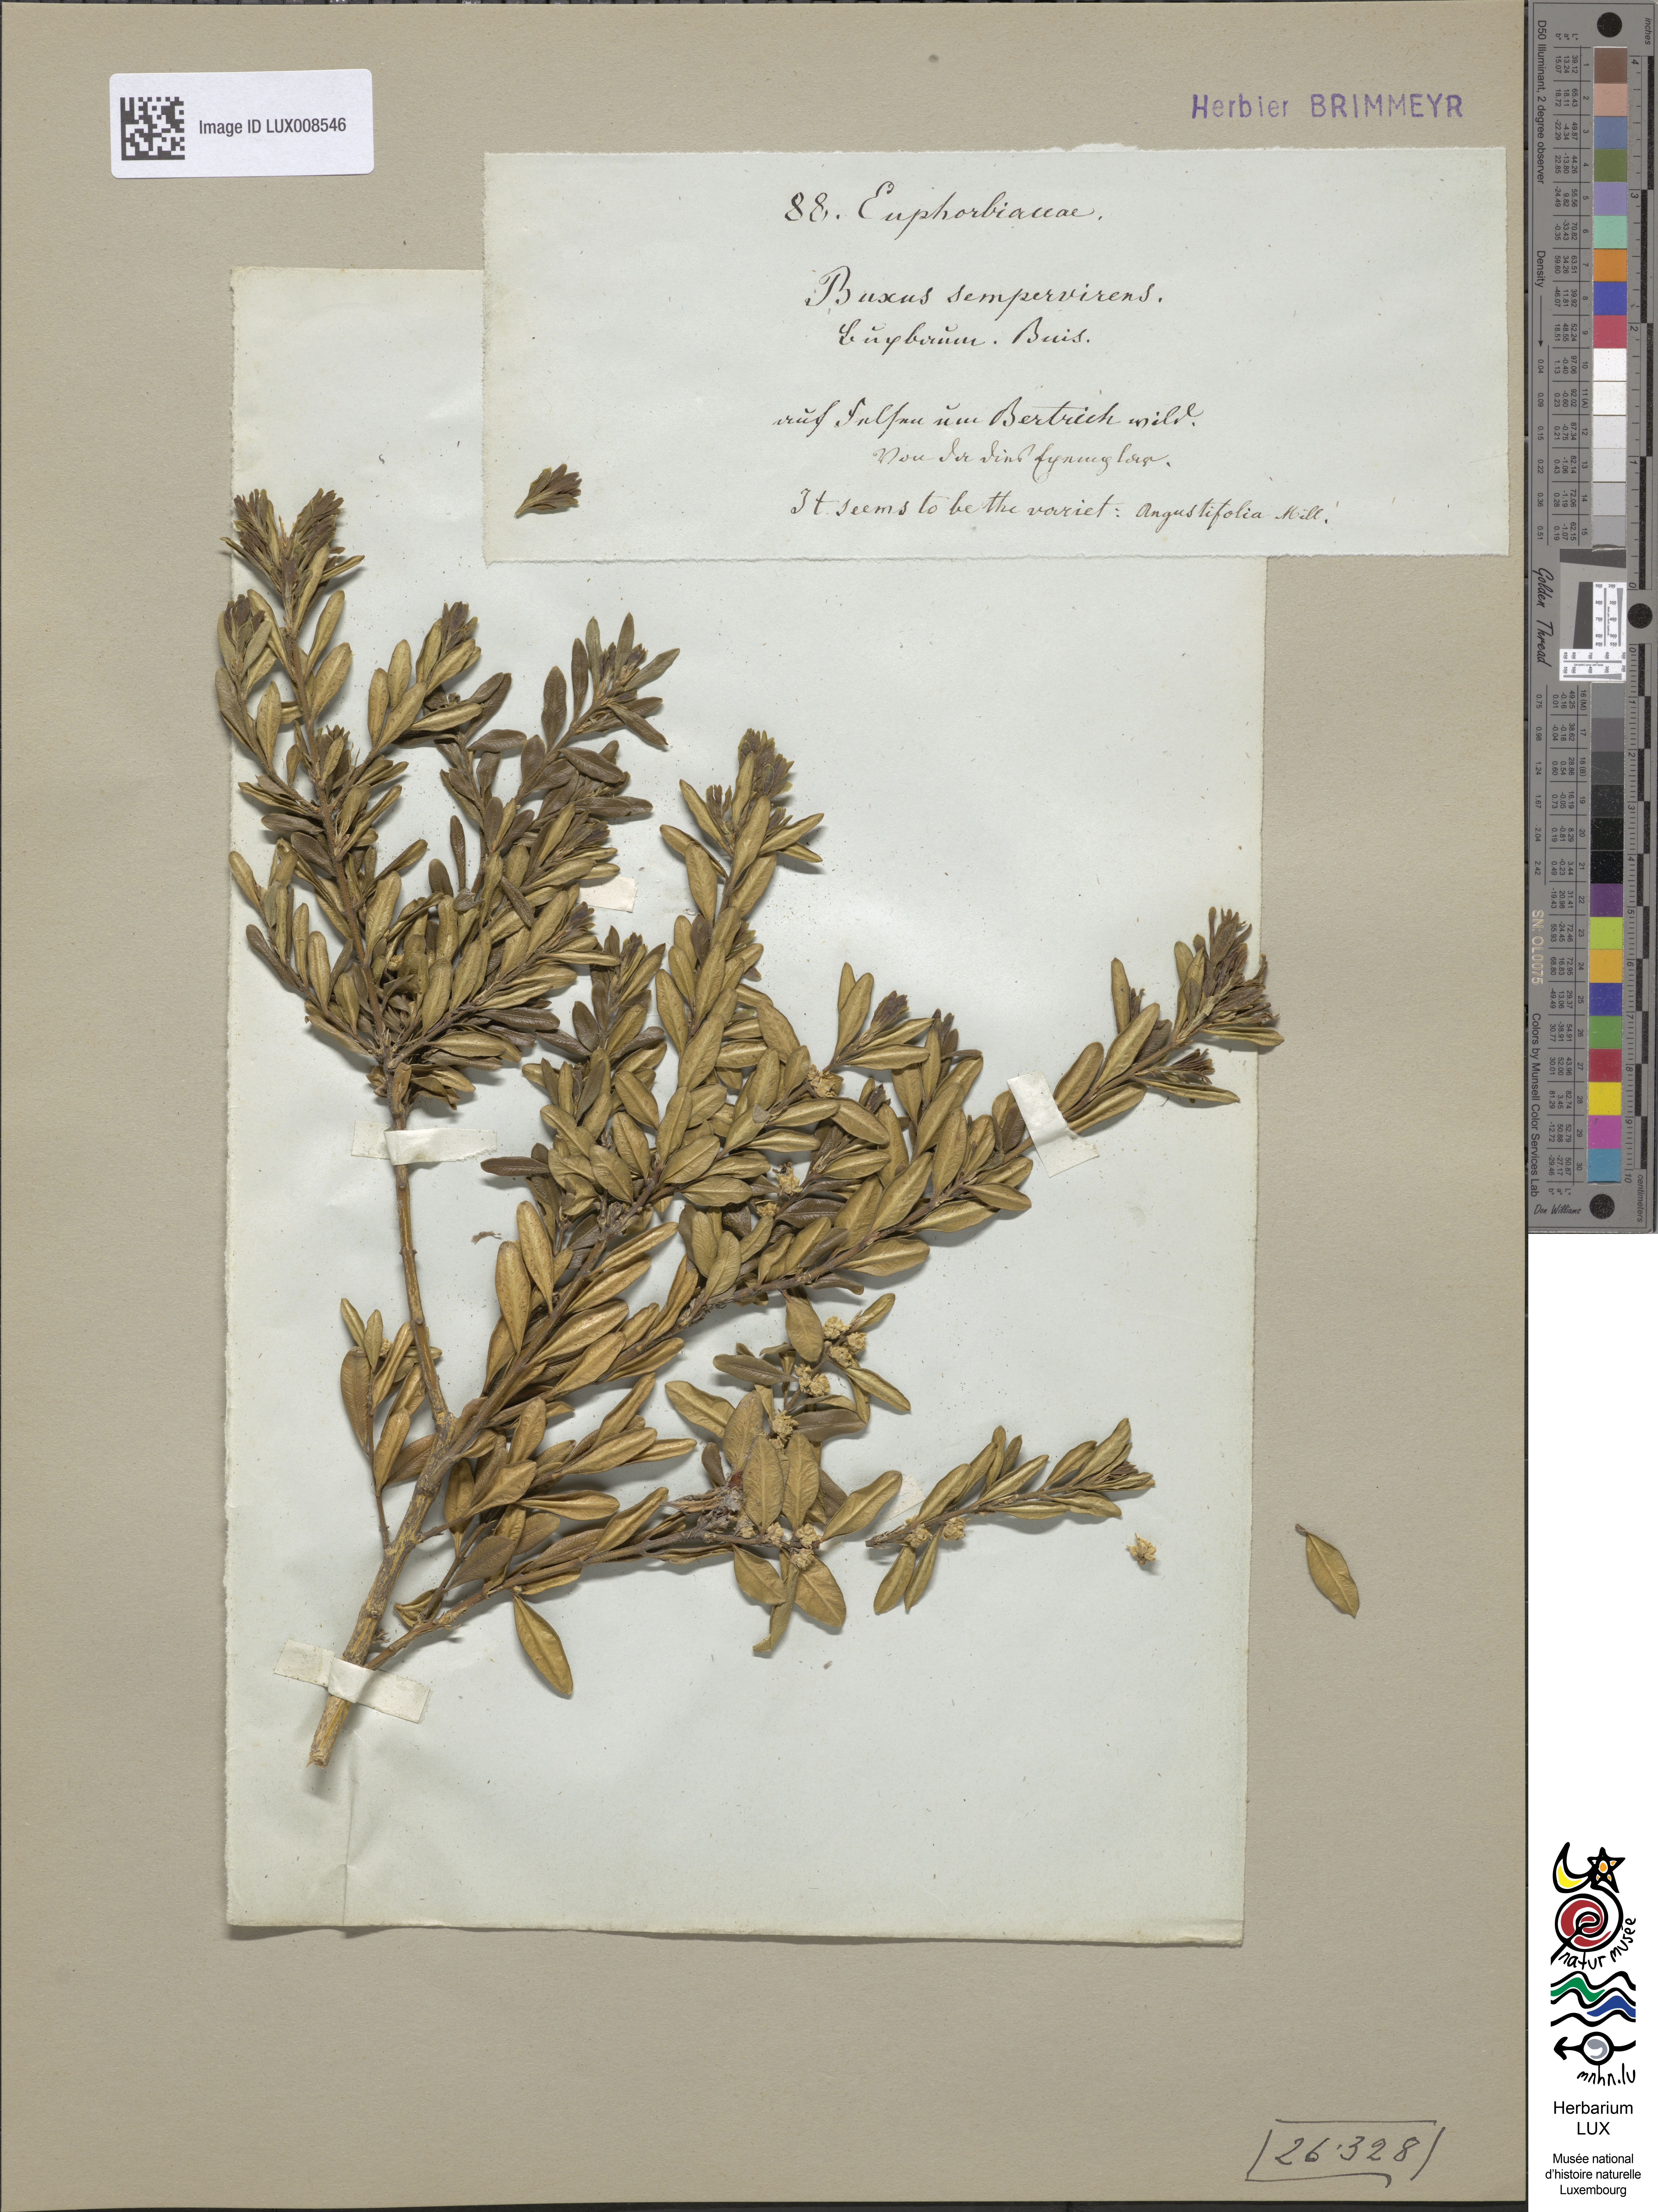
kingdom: Plantae
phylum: Tracheophyta
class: Magnoliopsida
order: Buxales
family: Buxaceae
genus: Buxus
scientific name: Buxus sempervirens
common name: Box
